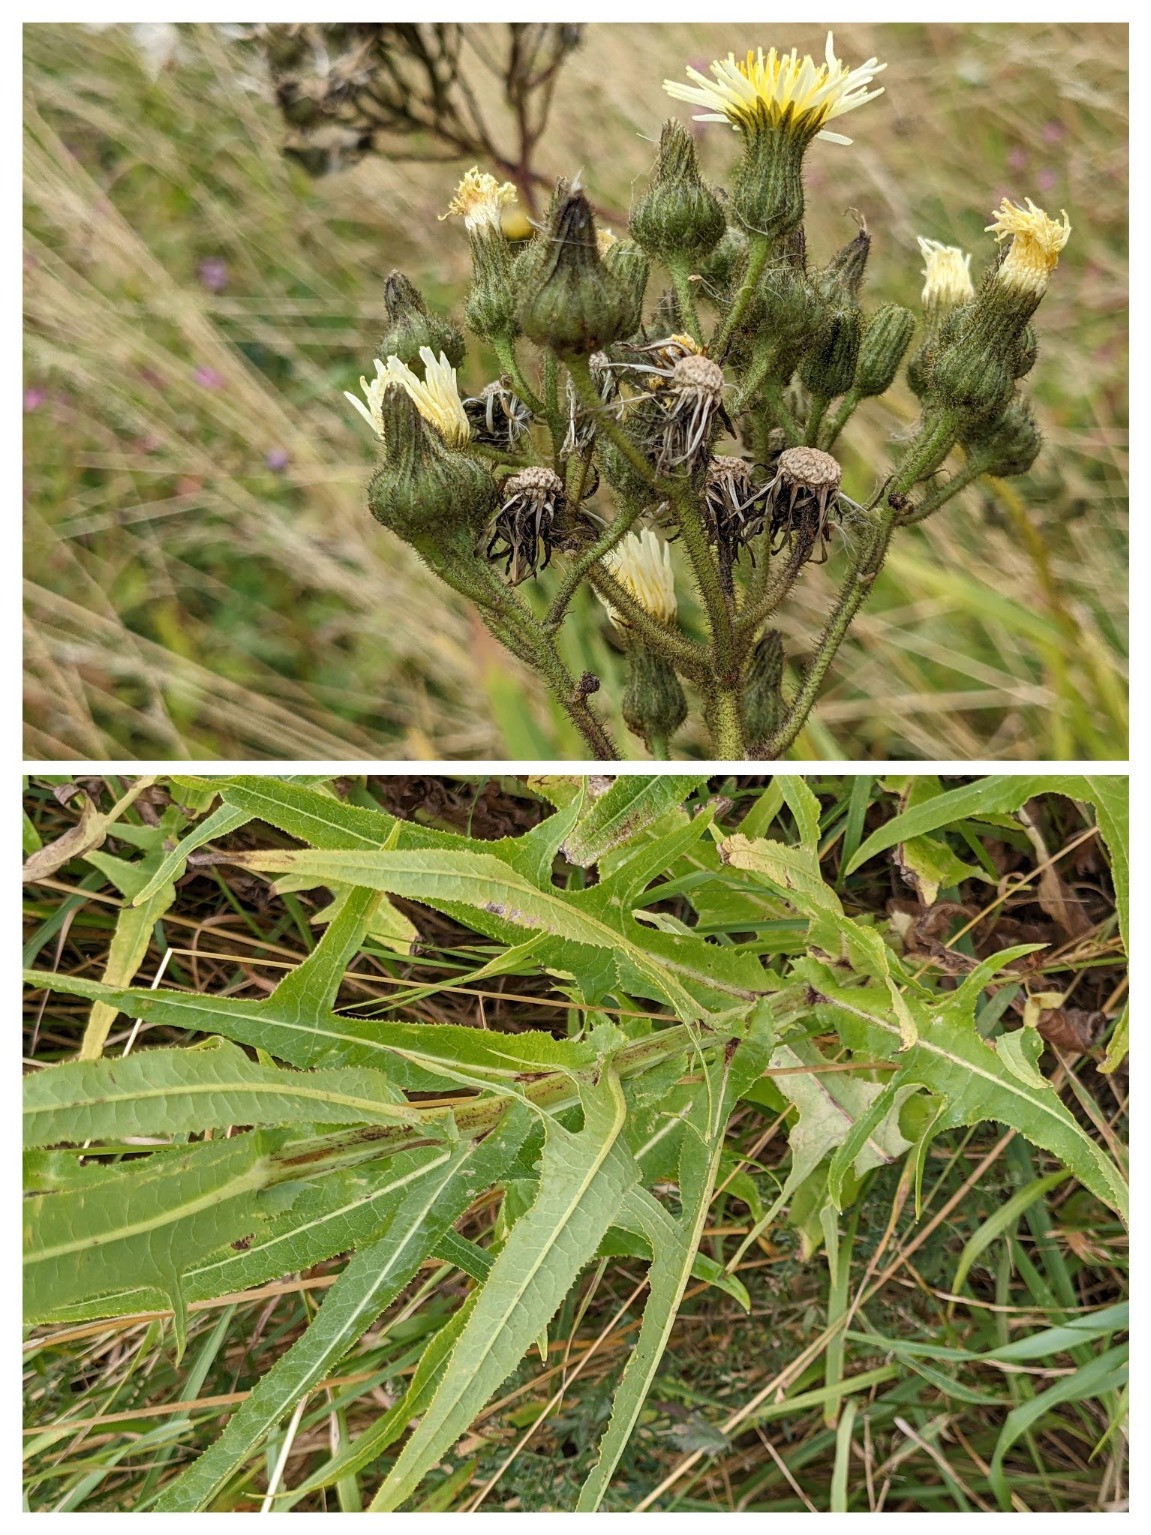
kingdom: Plantae
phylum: Tracheophyta
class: Magnoliopsida
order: Asterales
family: Asteraceae
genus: Sonchus
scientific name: Sonchus palustris
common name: Kær-svinemælk
